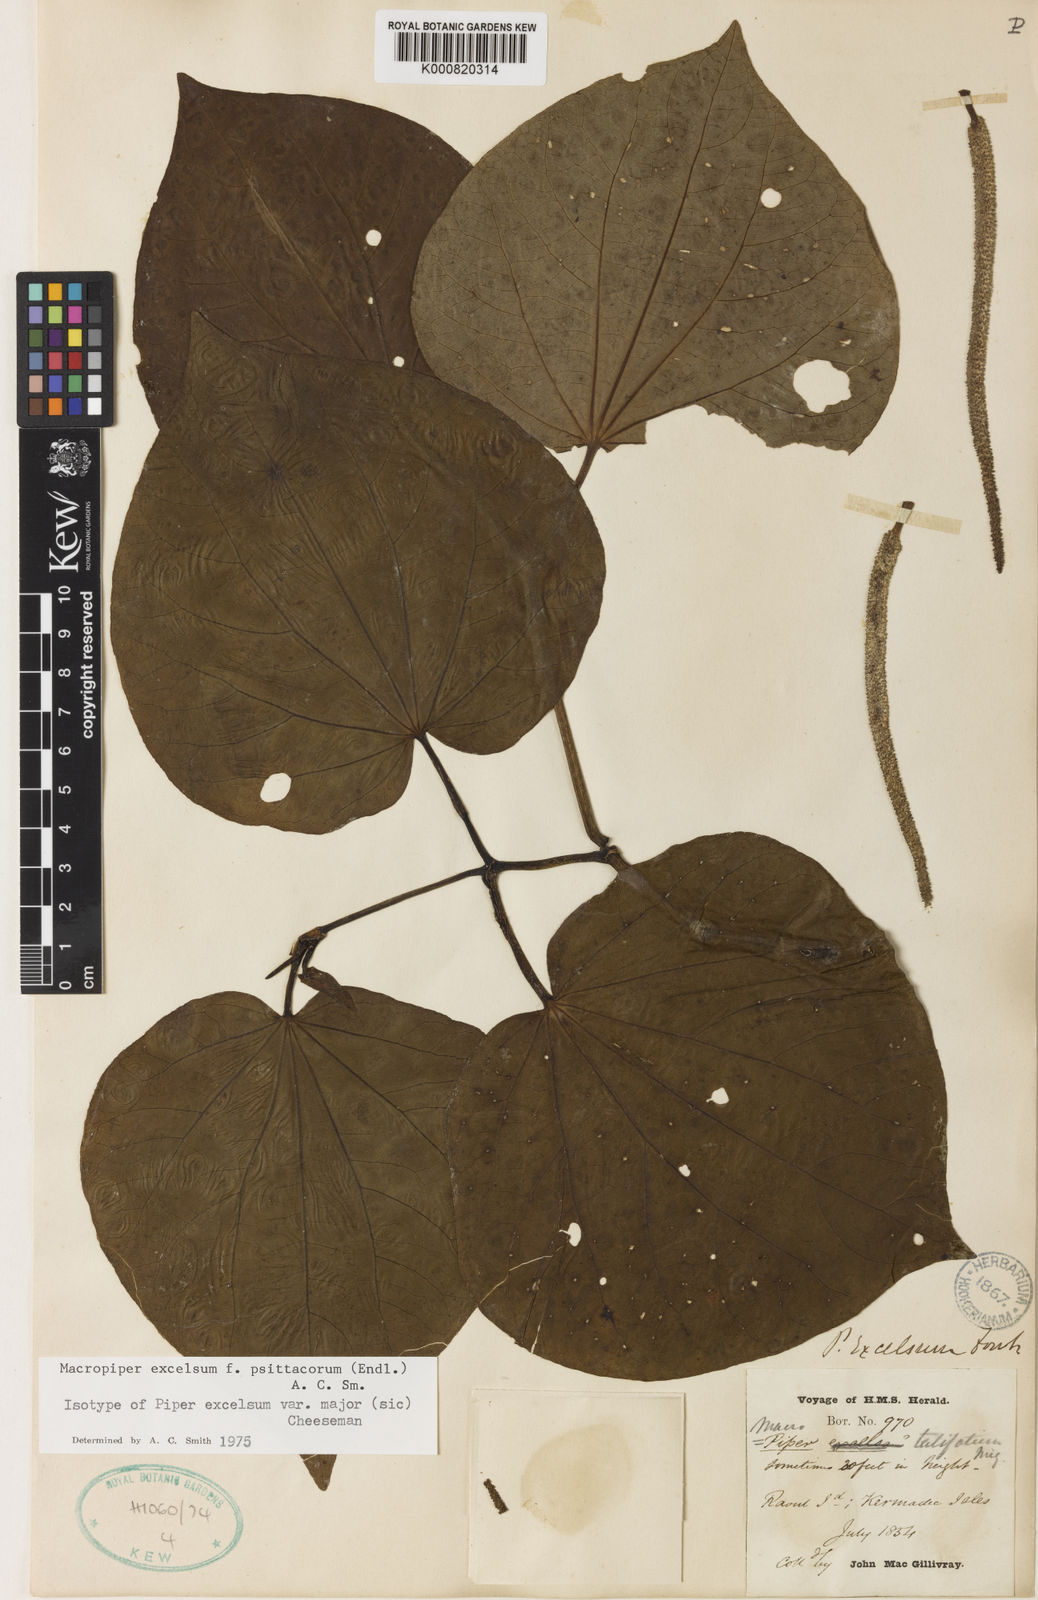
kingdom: Plantae
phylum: Tracheophyta
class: Magnoliopsida
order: Piperales
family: Piperaceae
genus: Macropiper
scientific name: Macropiper excelsum
